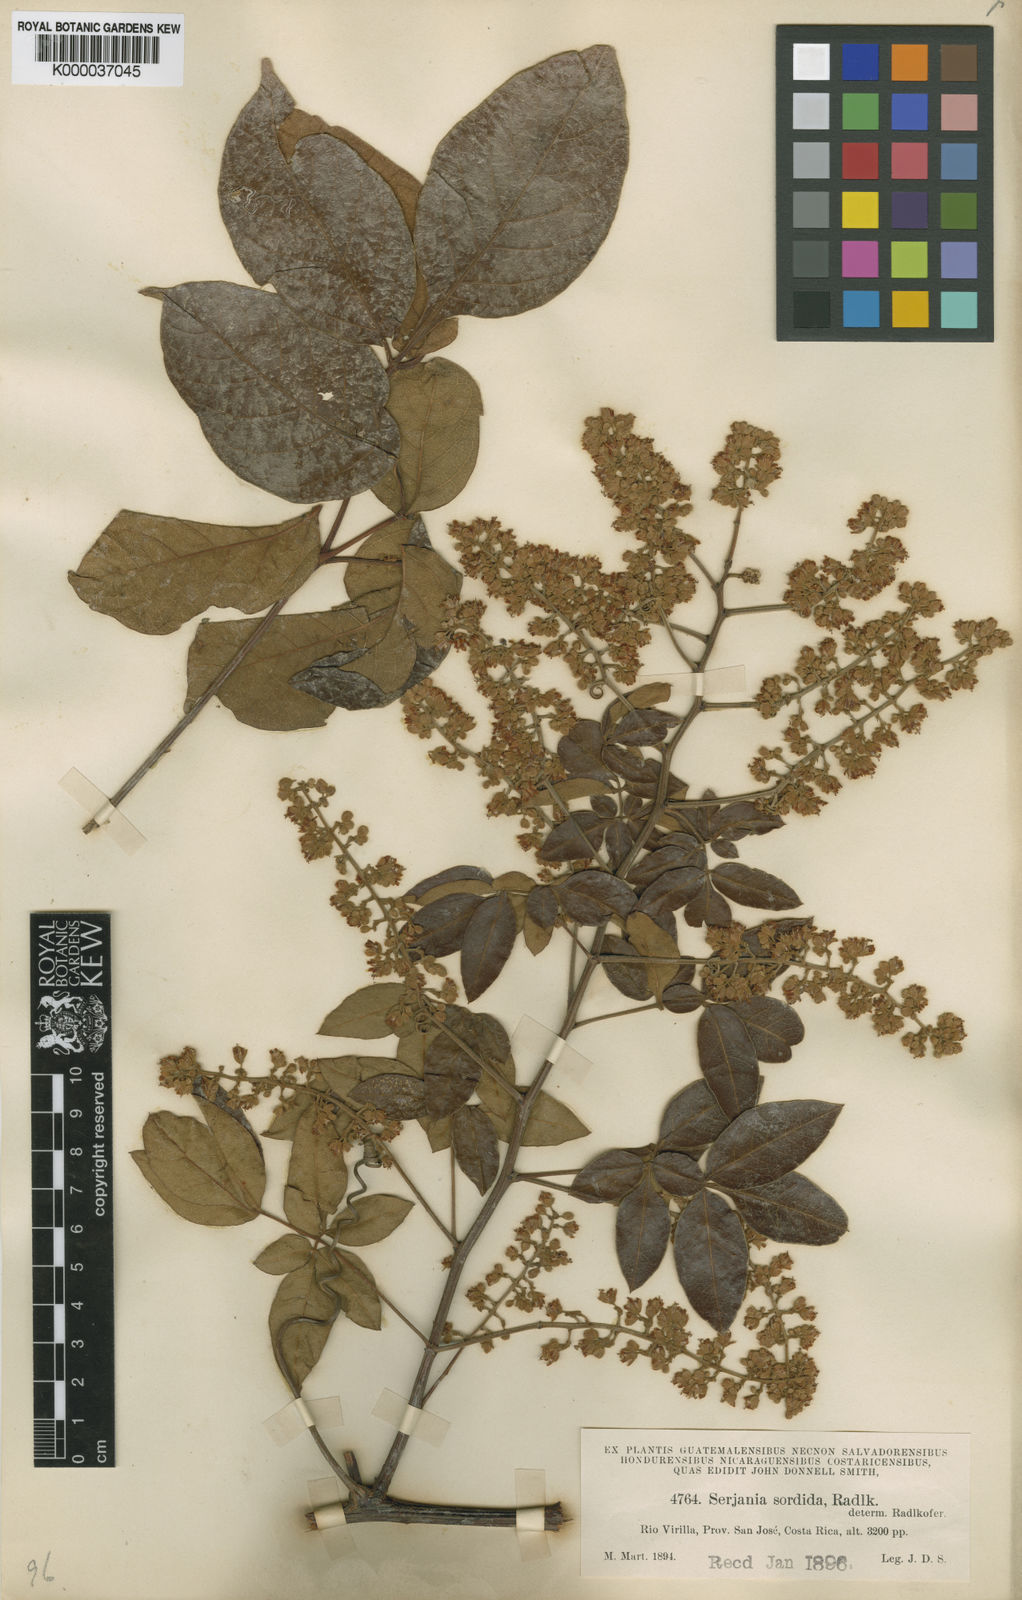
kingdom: Plantae
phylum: Tracheophyta
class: Magnoliopsida
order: Sapindales
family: Sapindaceae
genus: Serjania
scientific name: Serjania sordida
